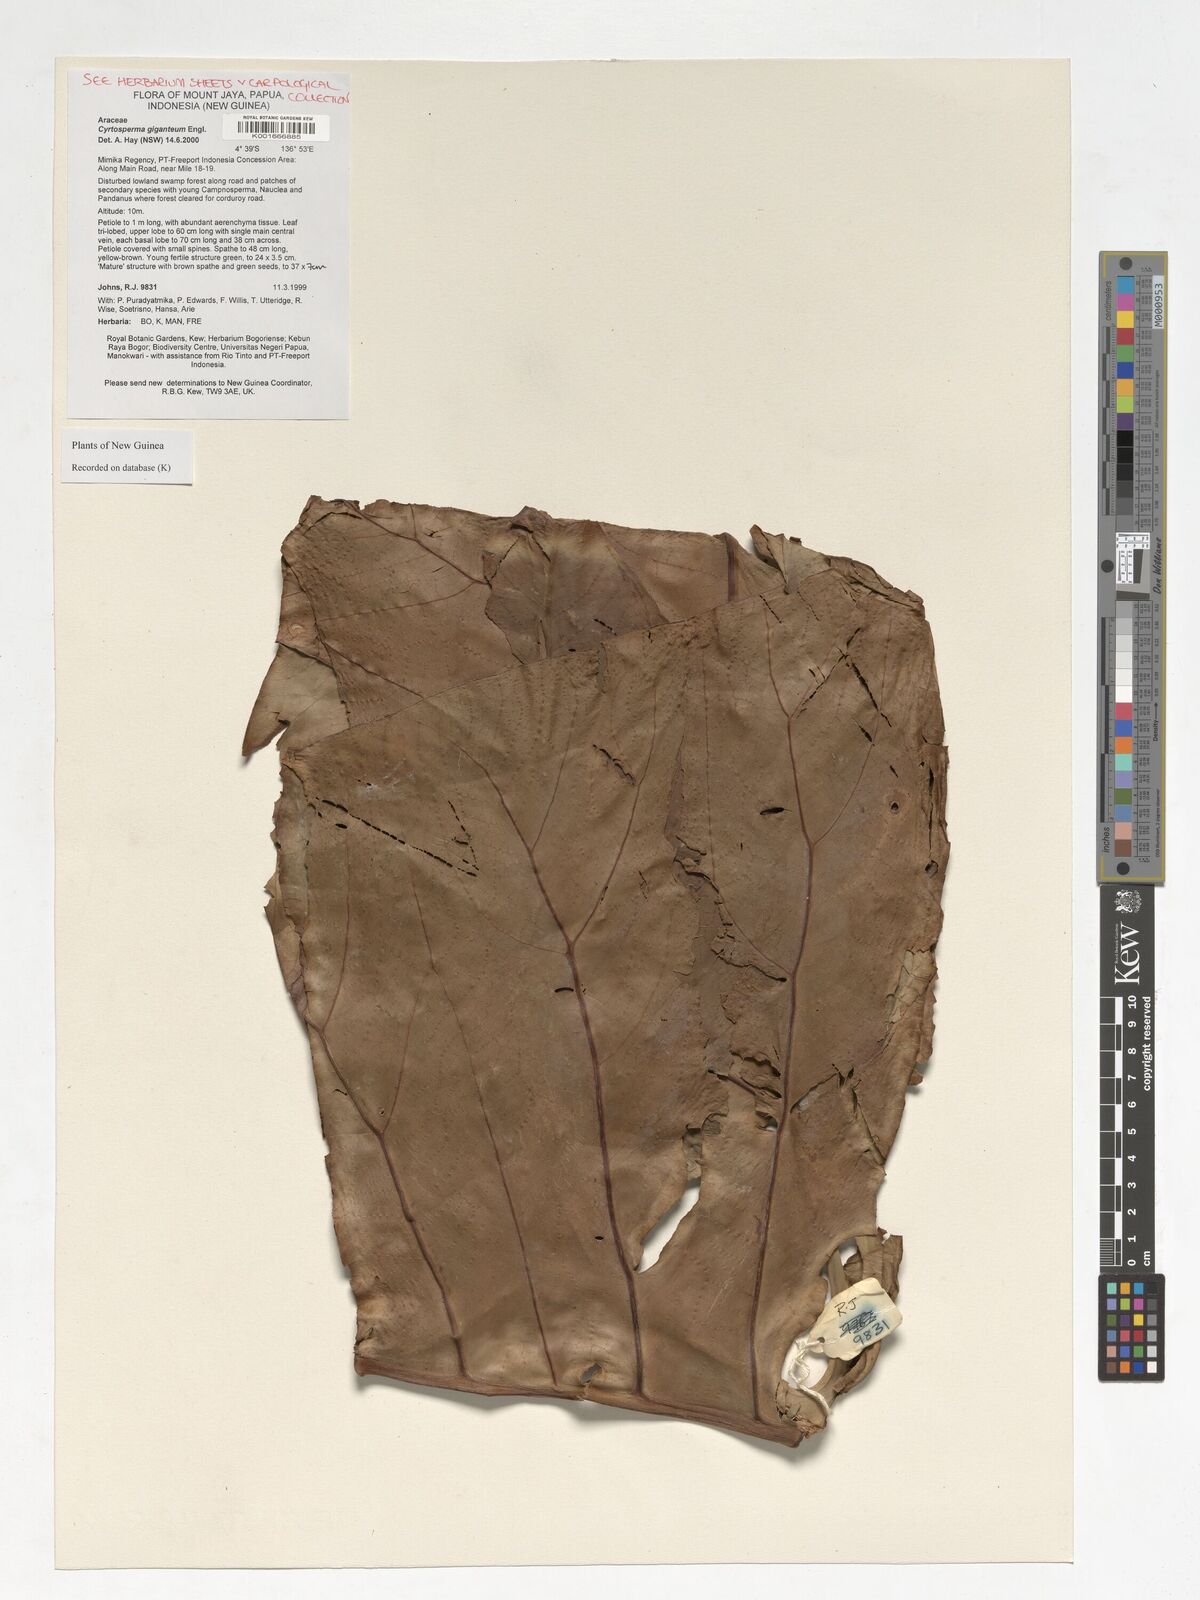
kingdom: Plantae
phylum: Tracheophyta
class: Liliopsida
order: Alismatales
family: Araceae
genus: Cyrtosperma
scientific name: Cyrtosperma giganteum
